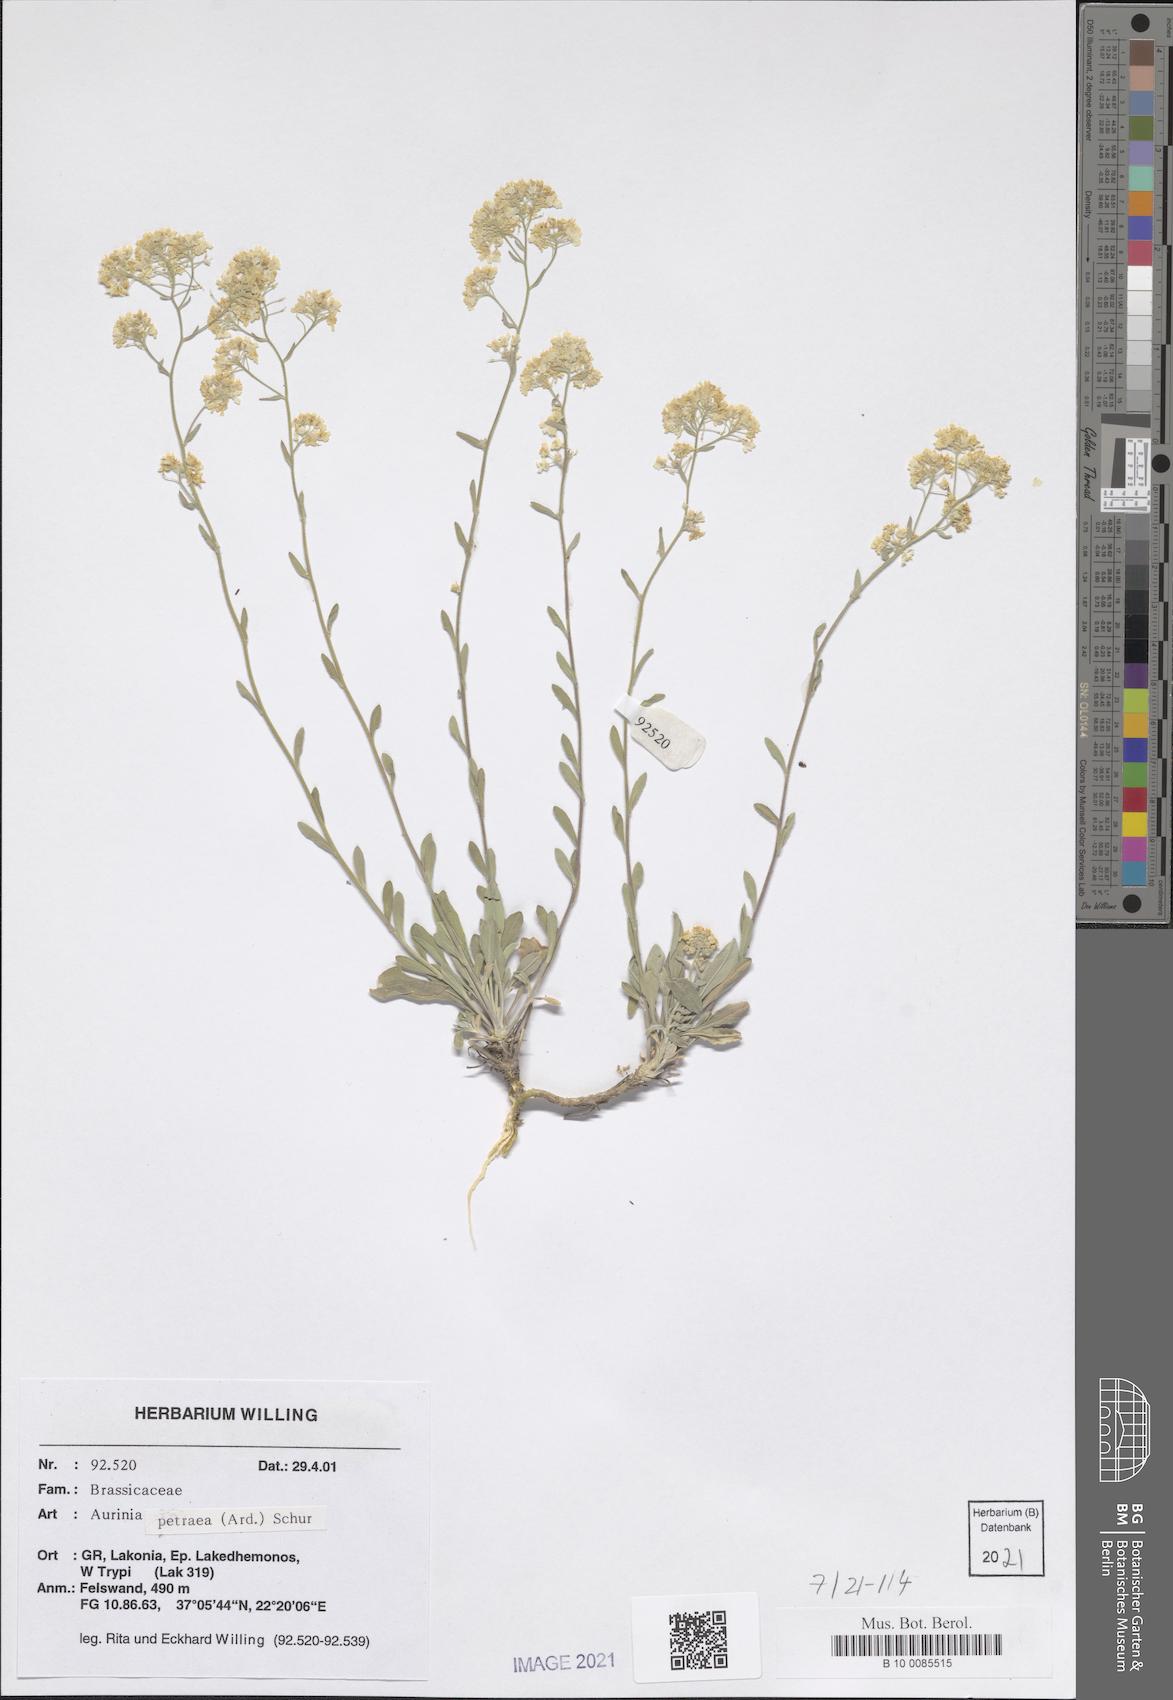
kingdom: Plantae
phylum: Tracheophyta
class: Magnoliopsida
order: Brassicales
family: Brassicaceae
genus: Aurinia
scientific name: Aurinia petraea
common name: Goldentuft
